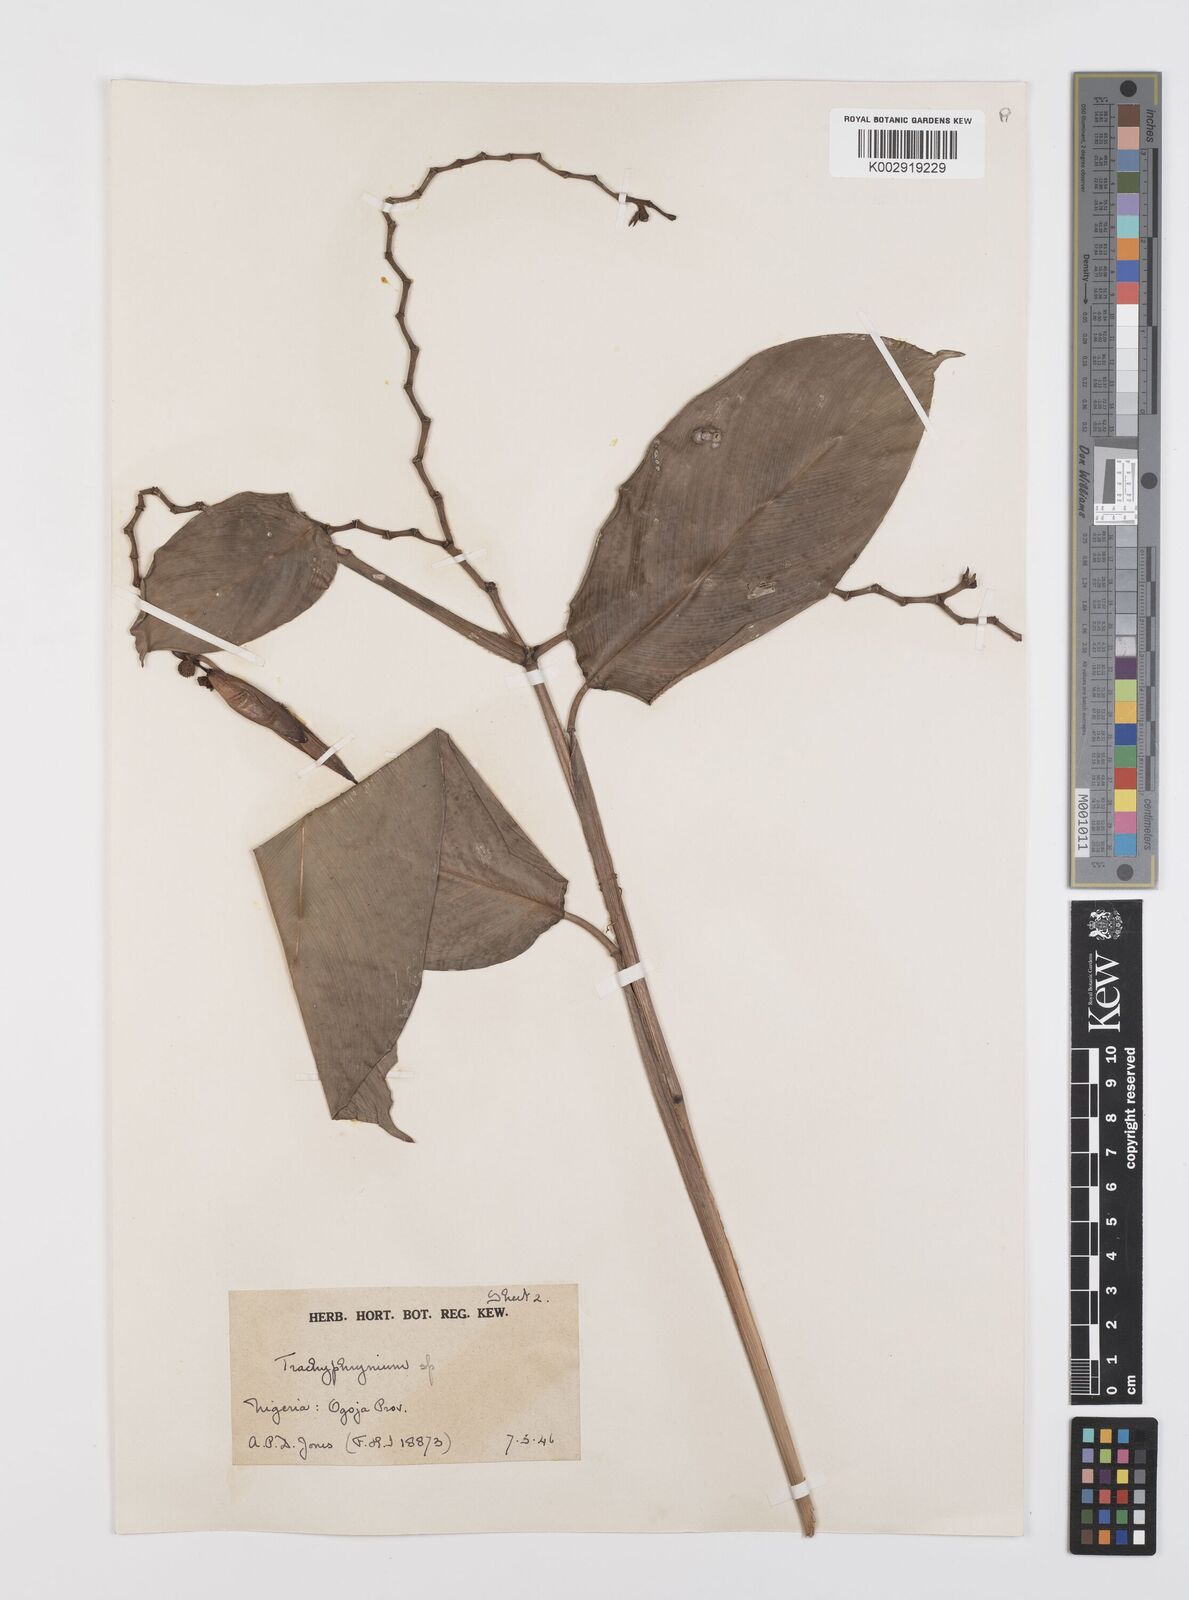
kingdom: Plantae
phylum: Tracheophyta
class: Liliopsida
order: Zingiberales
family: Marantaceae
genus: Hypselodelphys
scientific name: Hypselodelphys scandens
